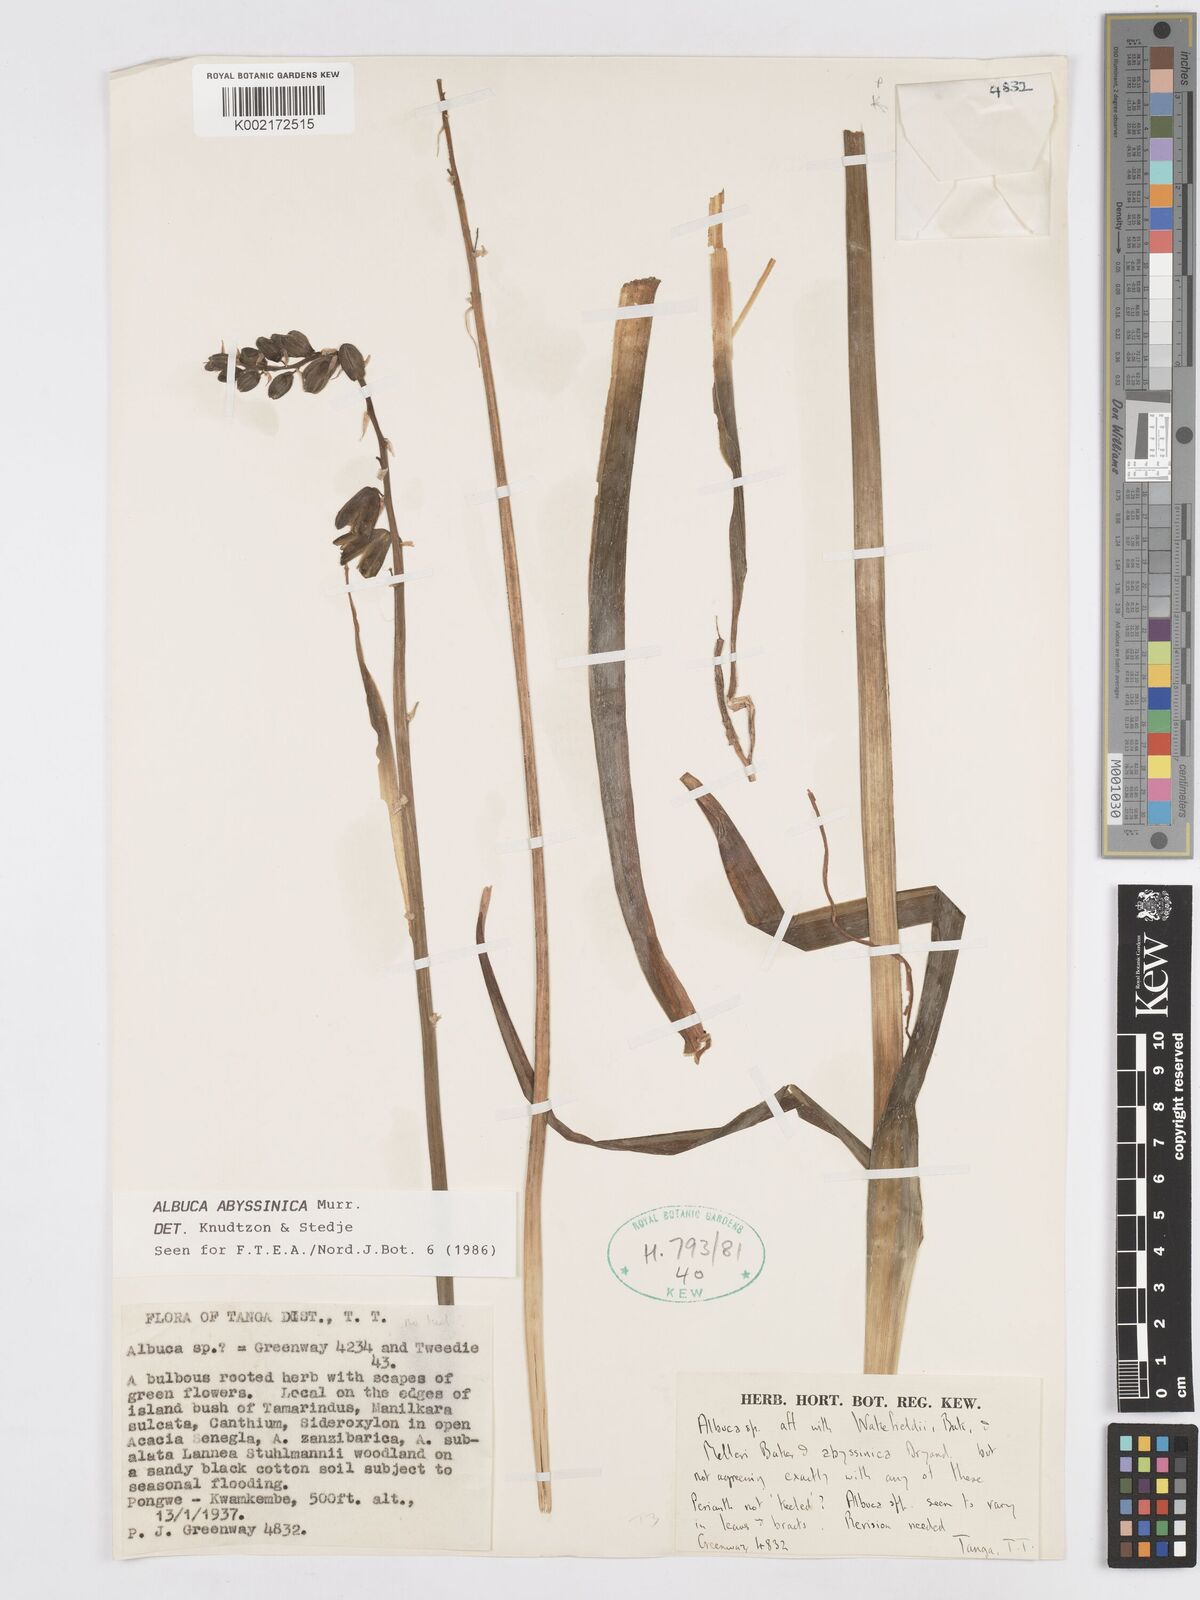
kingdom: Plantae
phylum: Tracheophyta
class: Liliopsida
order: Asparagales
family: Asparagaceae
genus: Albuca
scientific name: Albuca abyssinica
